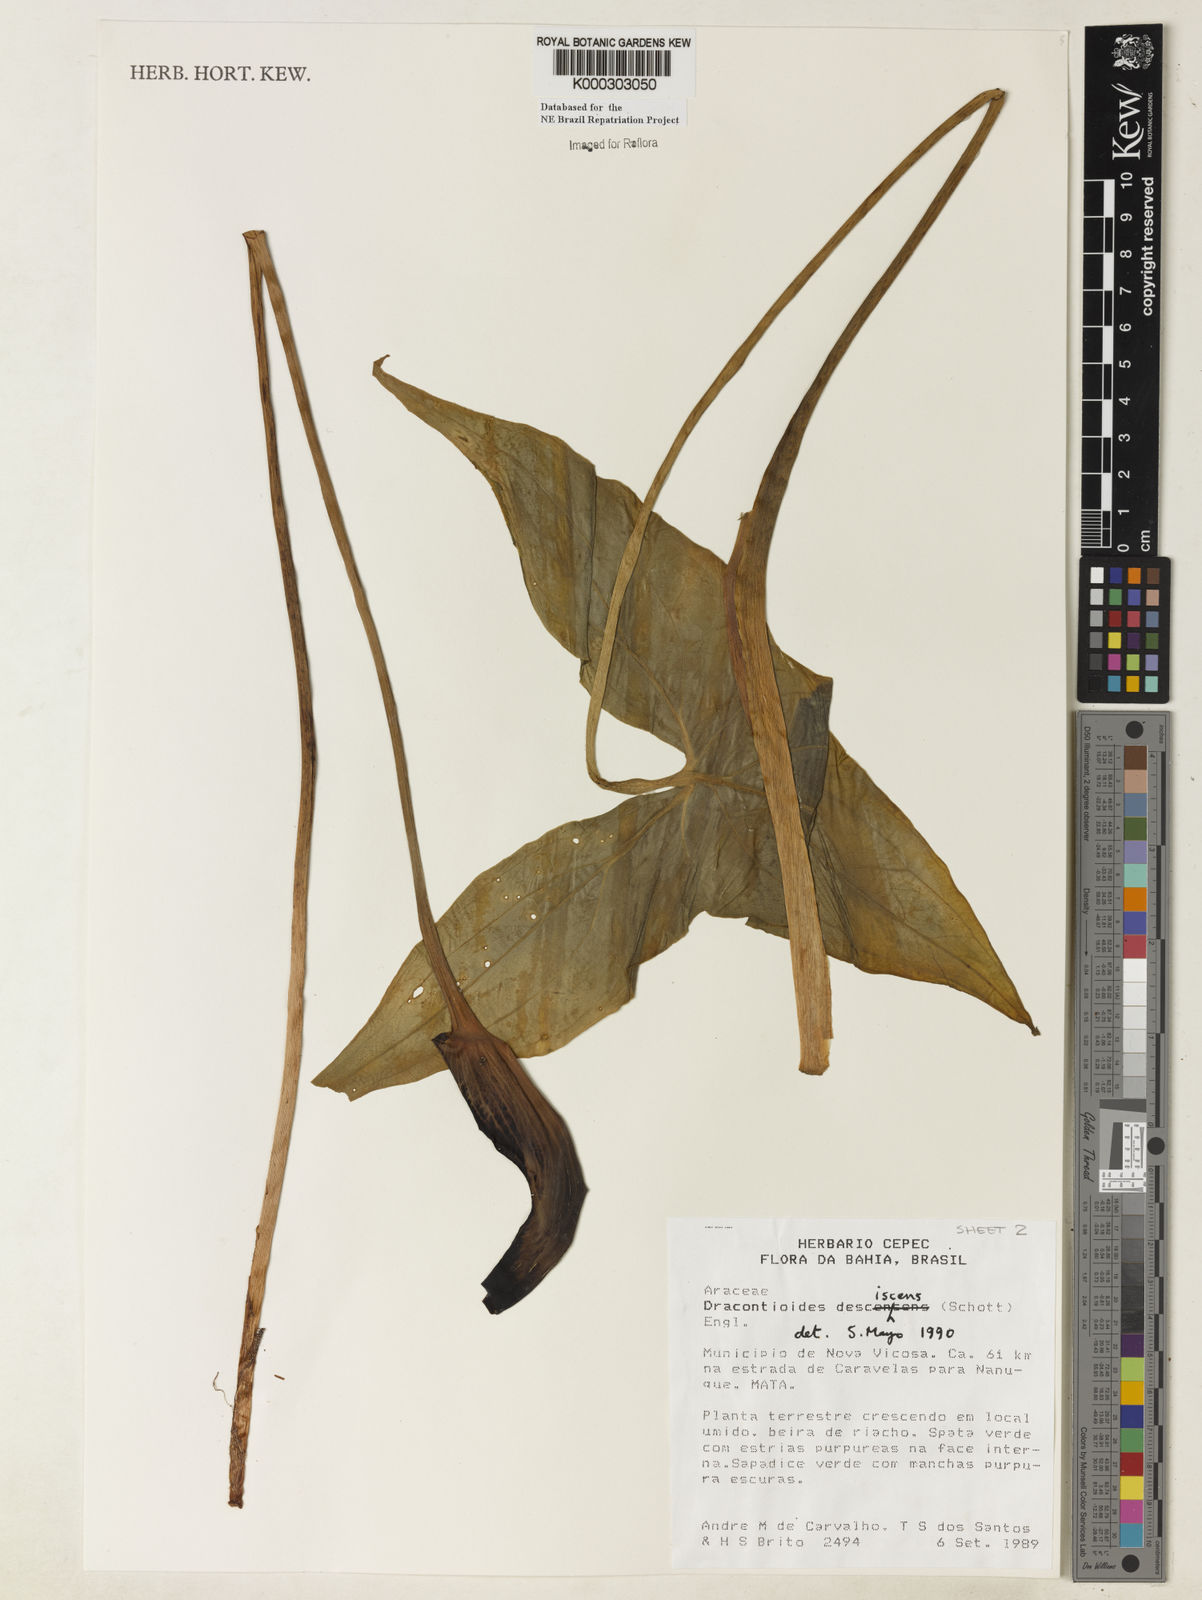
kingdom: Plantae
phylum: Tracheophyta
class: Liliopsida
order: Alismatales
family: Araceae
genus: Dracontioides
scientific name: Dracontioides desciscens
